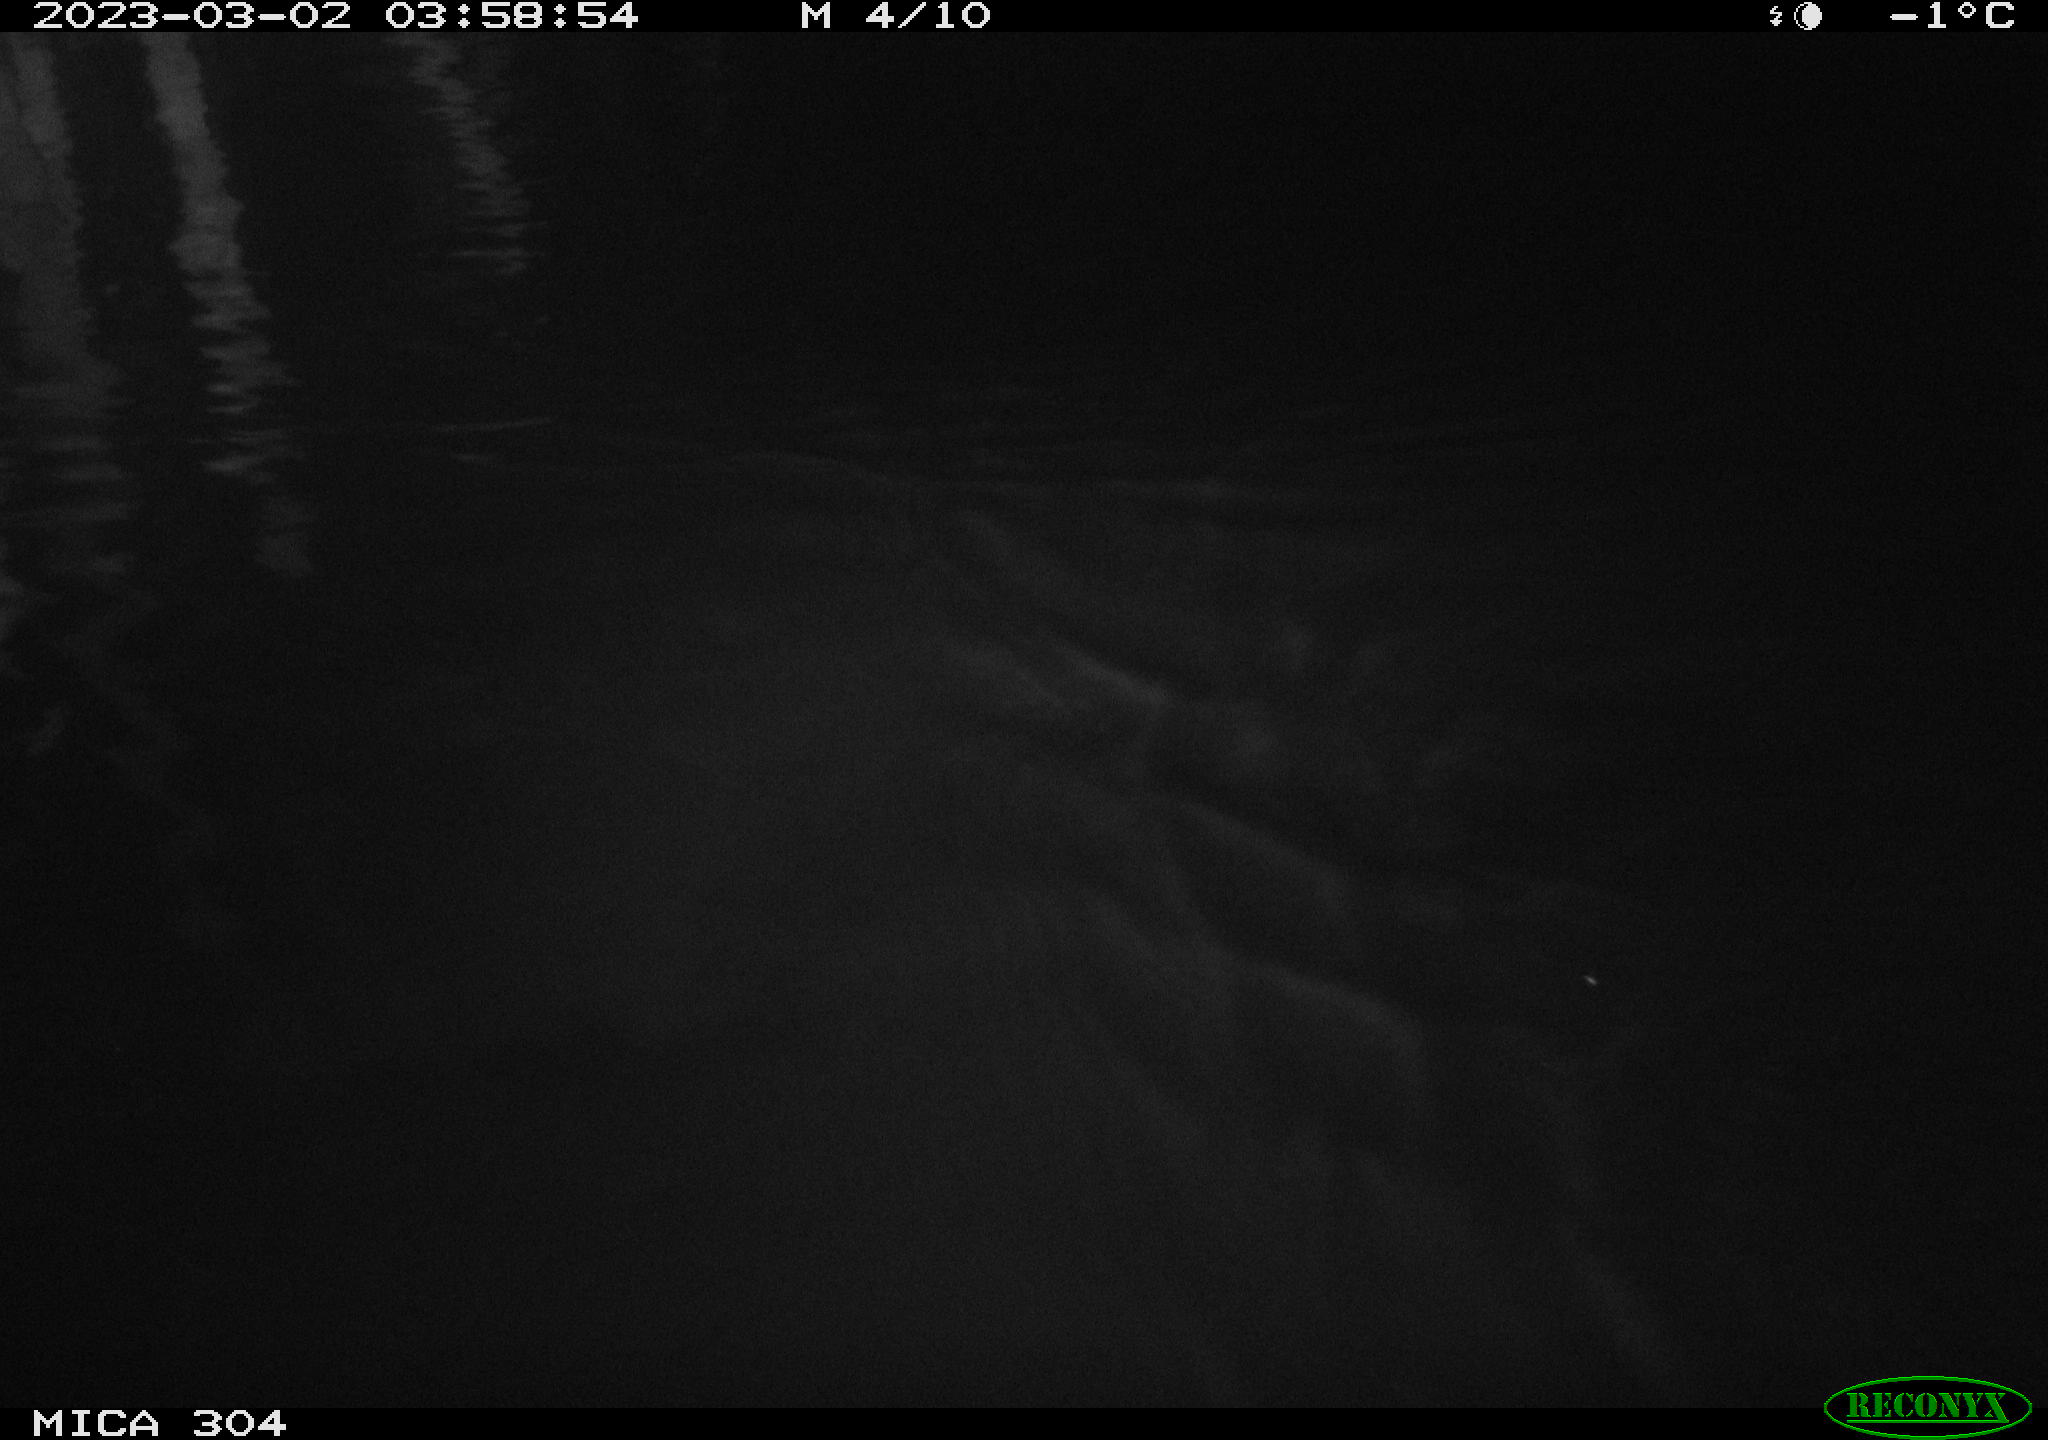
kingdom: Animalia
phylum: Chordata
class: Mammalia
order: Rodentia
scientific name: Rodentia
